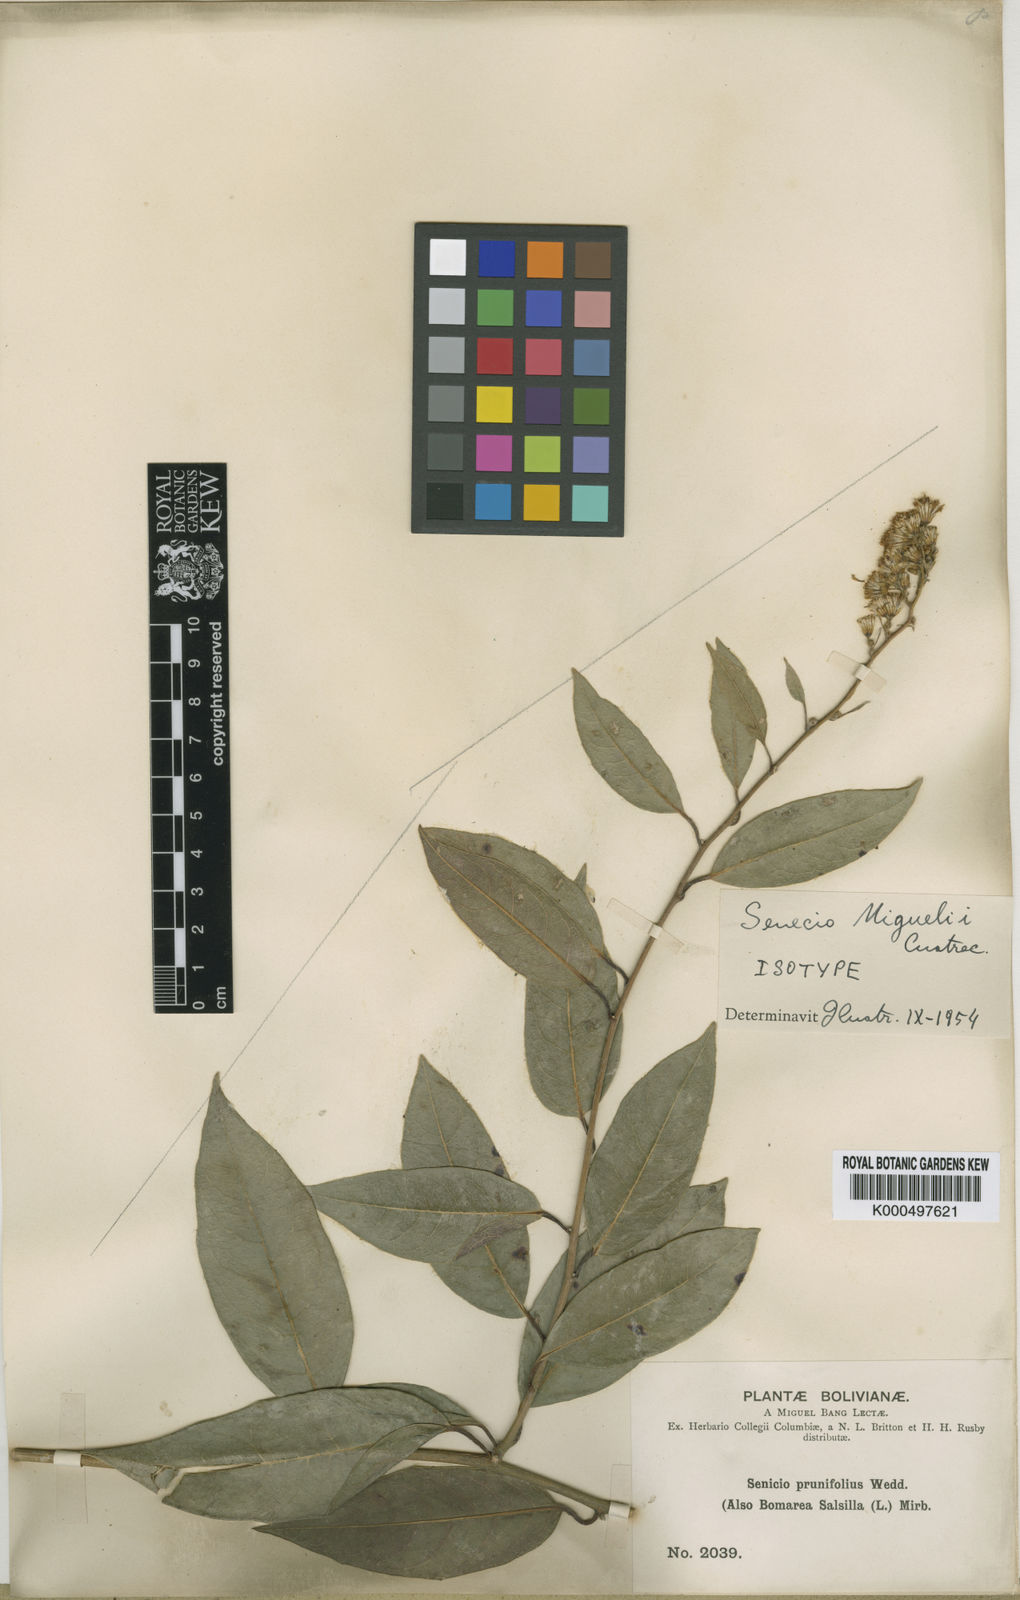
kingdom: Plantae
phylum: Tracheophyta
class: Magnoliopsida
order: Asterales
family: Asteraceae
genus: Pentacalia
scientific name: Pentacalia psidiifolia
